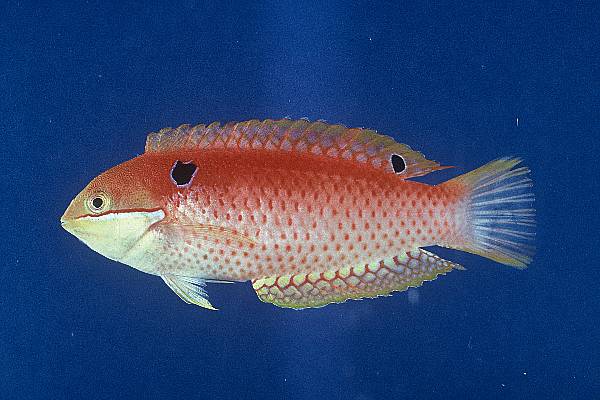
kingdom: Animalia
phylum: Chordata
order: Perciformes
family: Labridae
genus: Macropharyngodon
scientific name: Macropharyngodon vivienae
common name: Madagascar wrasse
